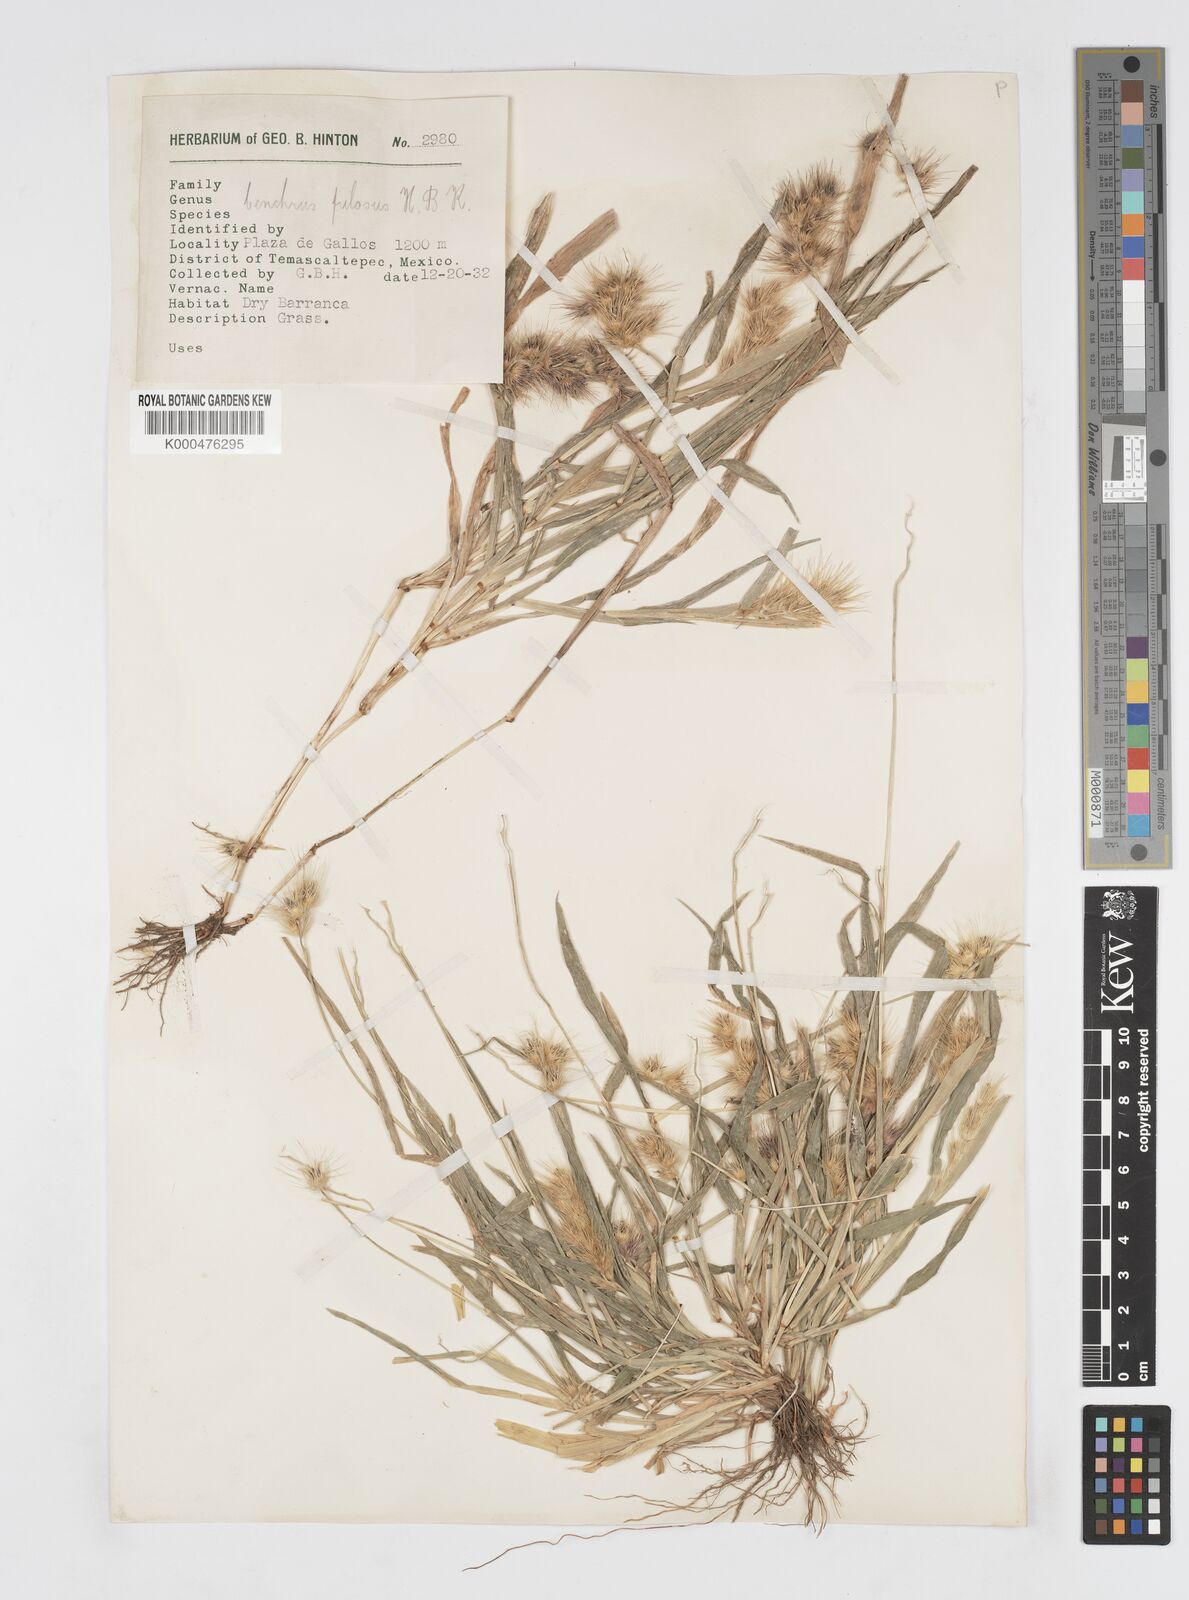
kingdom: Plantae
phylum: Tracheophyta
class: Liliopsida
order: Poales
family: Poaceae
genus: Cenchrus
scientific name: Cenchrus pilosus
